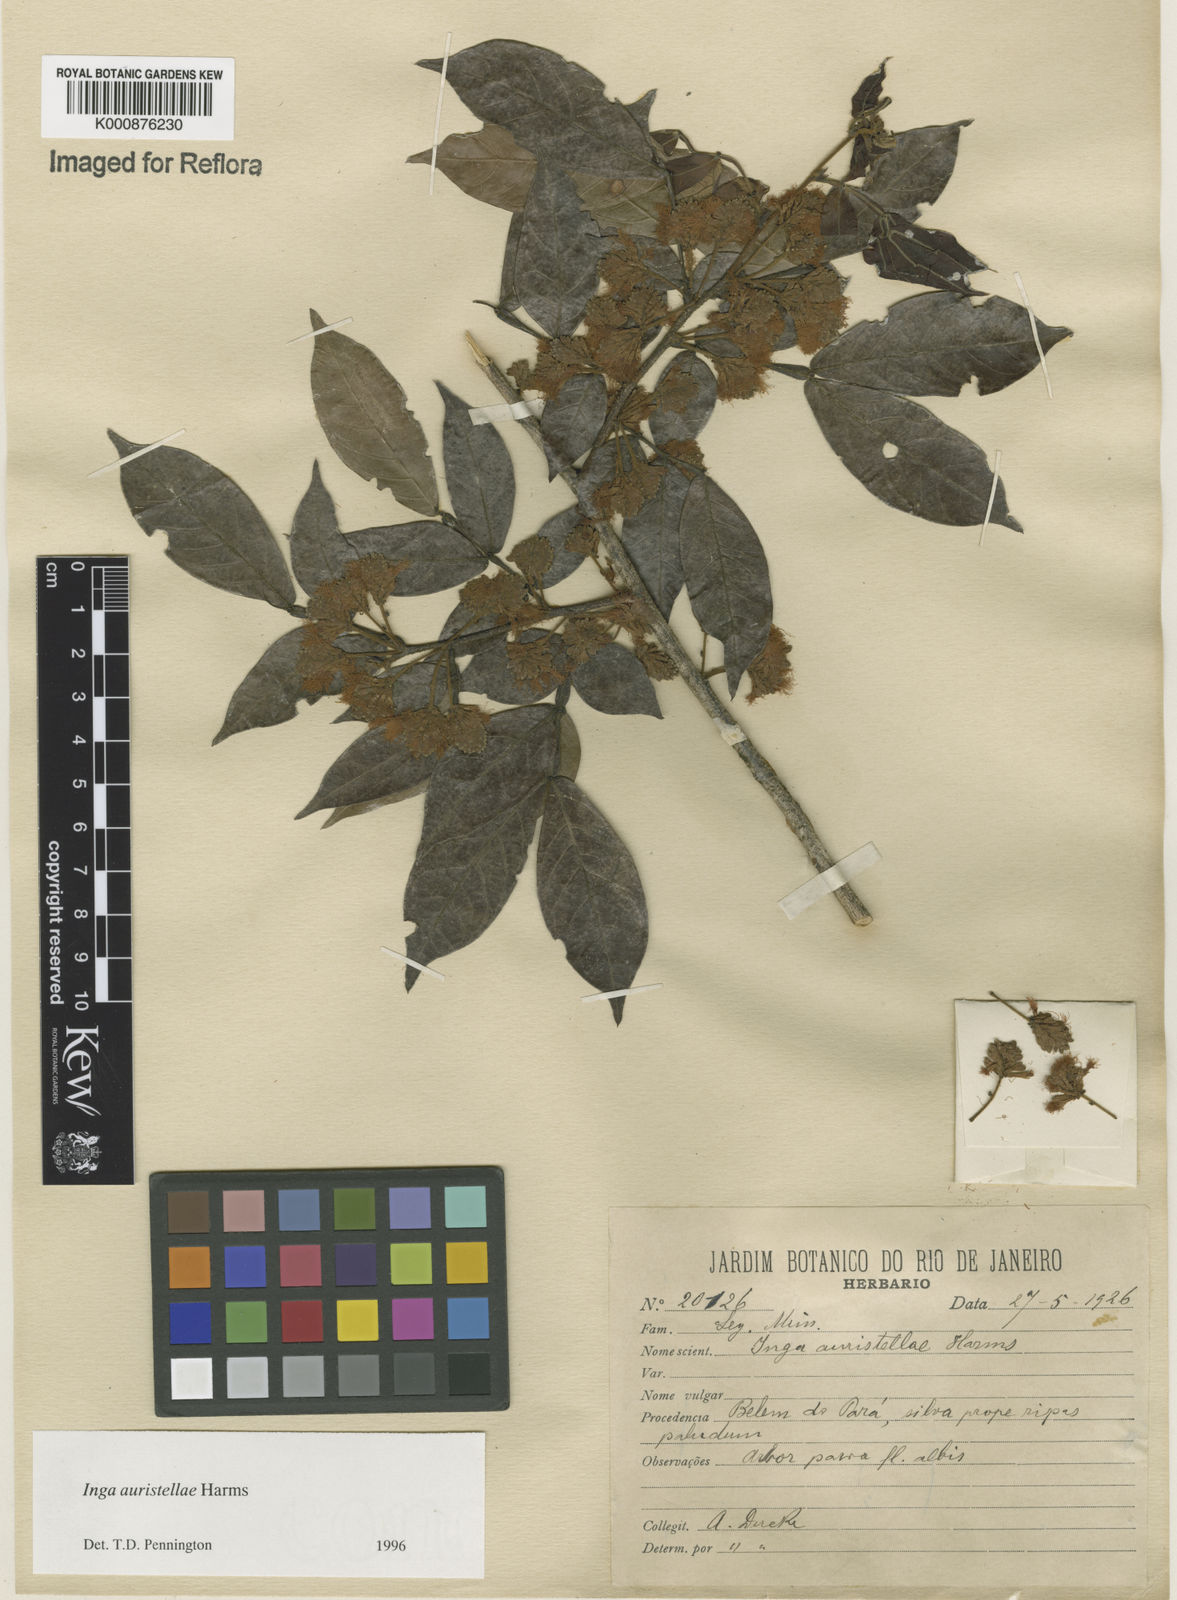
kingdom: Plantae
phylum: Tracheophyta
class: Magnoliopsida
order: Fabales
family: Fabaceae
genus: Inga
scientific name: Inga auristellae
